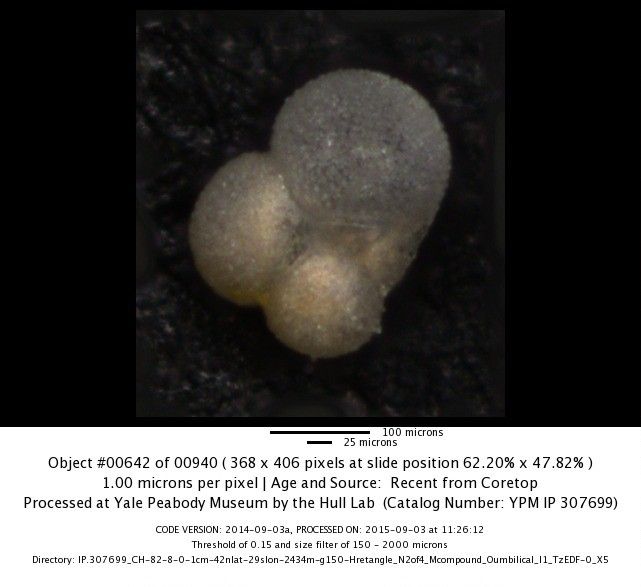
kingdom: Chromista
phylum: Foraminifera
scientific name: Foraminifera
